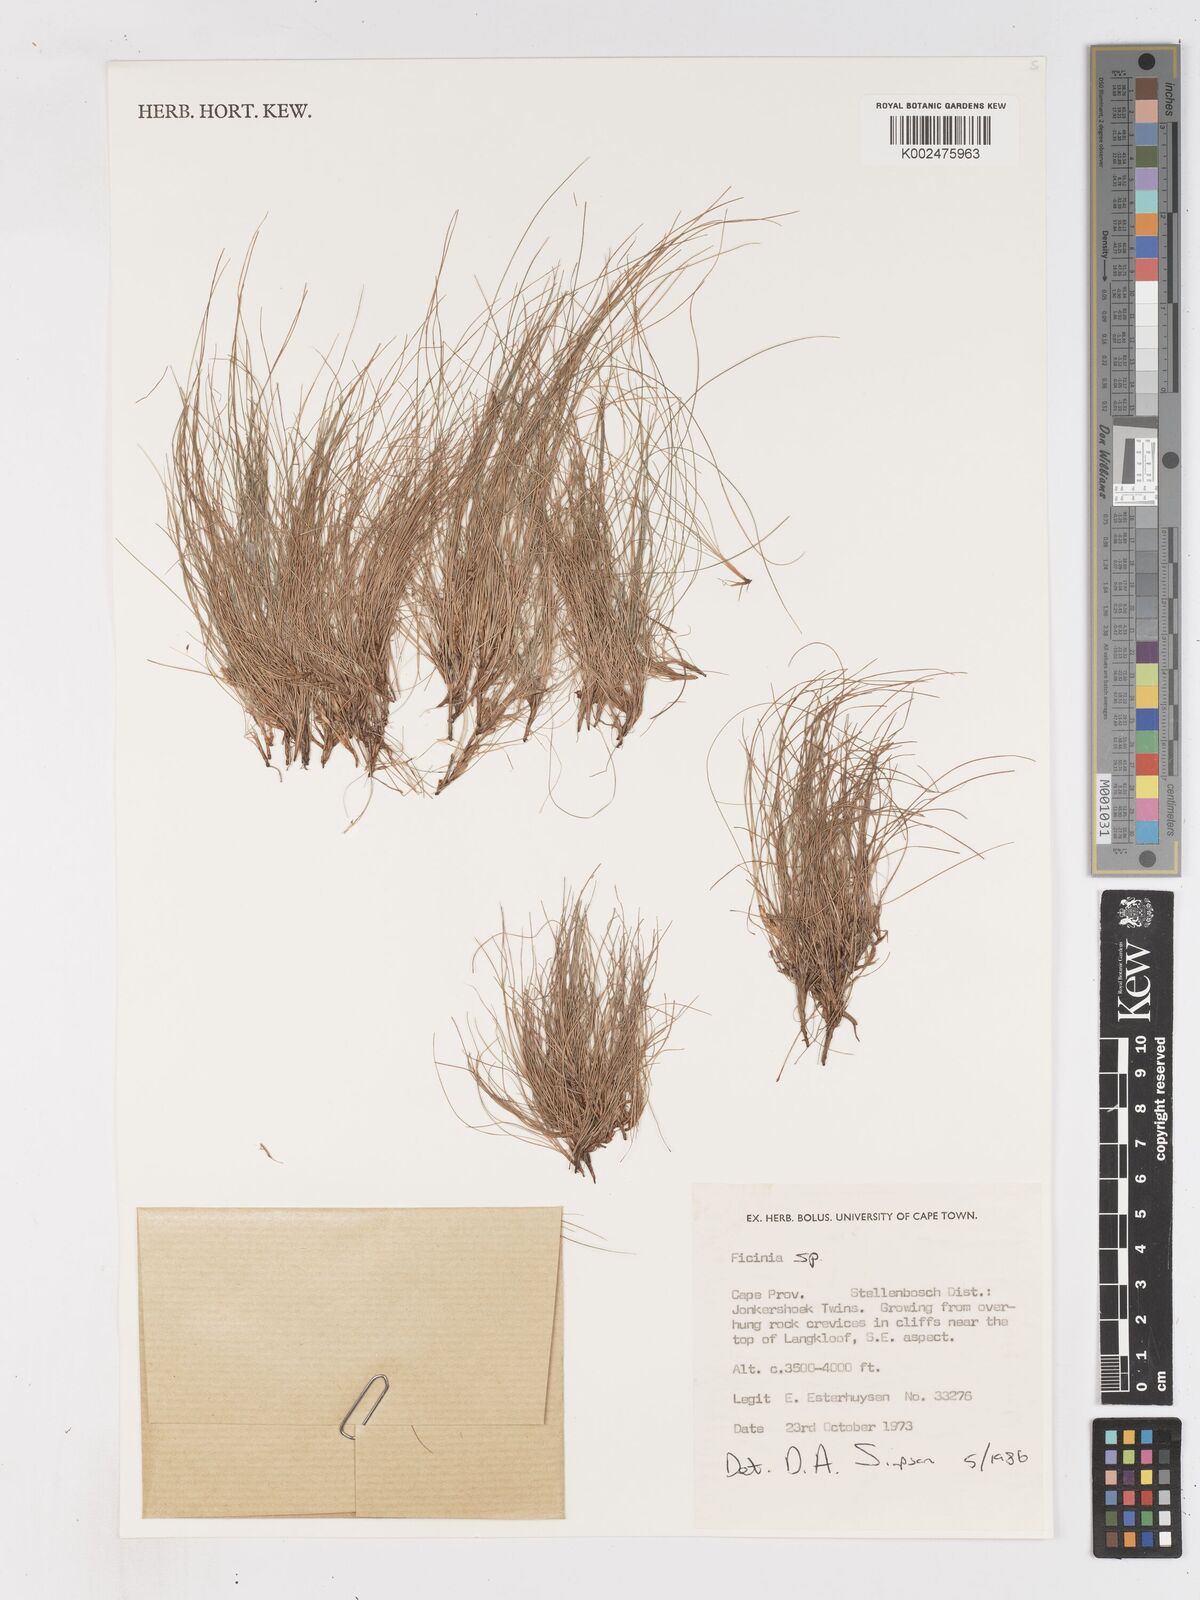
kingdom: Plantae
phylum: Tracheophyta
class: Liliopsida
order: Poales
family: Cyperaceae
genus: Ficinia
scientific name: Ficinia esterhuyseniae
